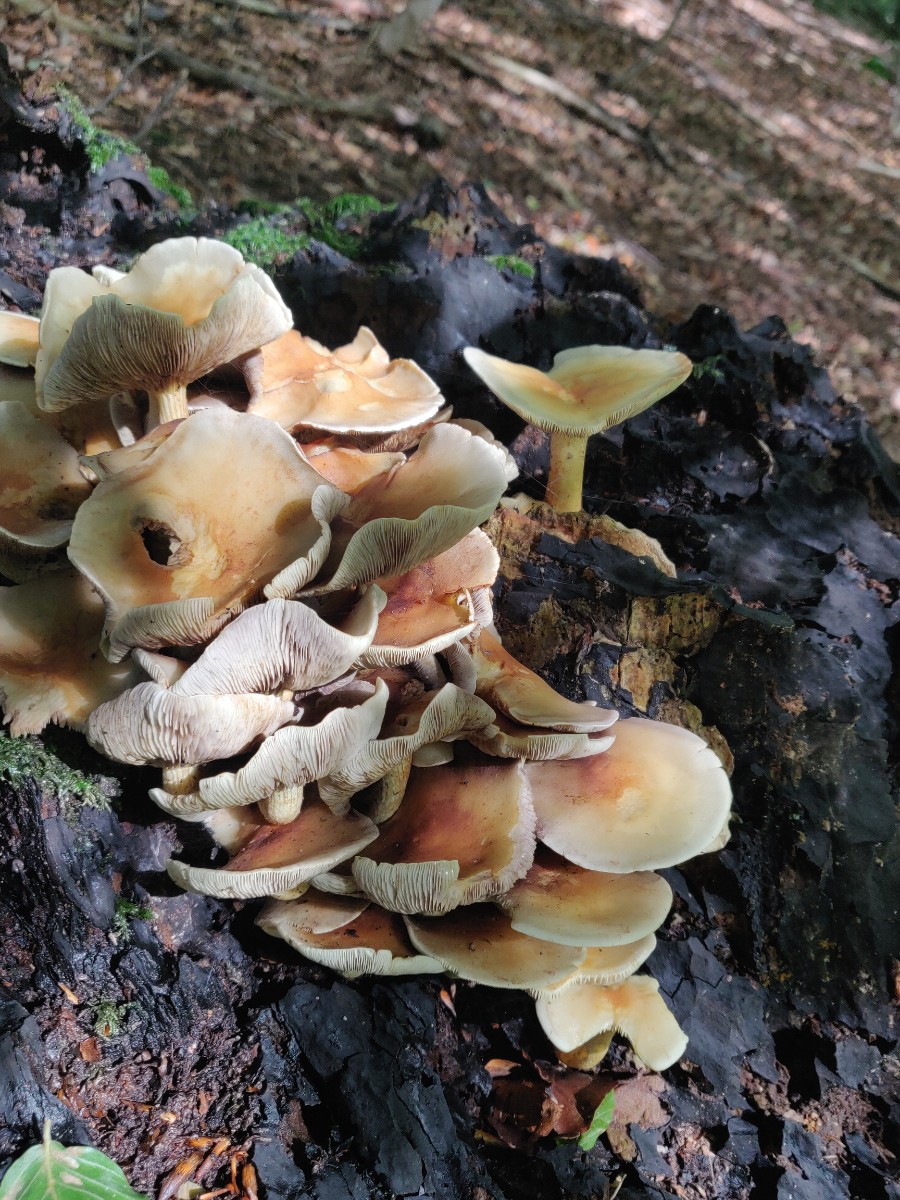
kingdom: Fungi
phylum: Basidiomycota
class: Agaricomycetes
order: Agaricales
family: Strophariaceae
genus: Hypholoma
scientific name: Hypholoma fasciculare
